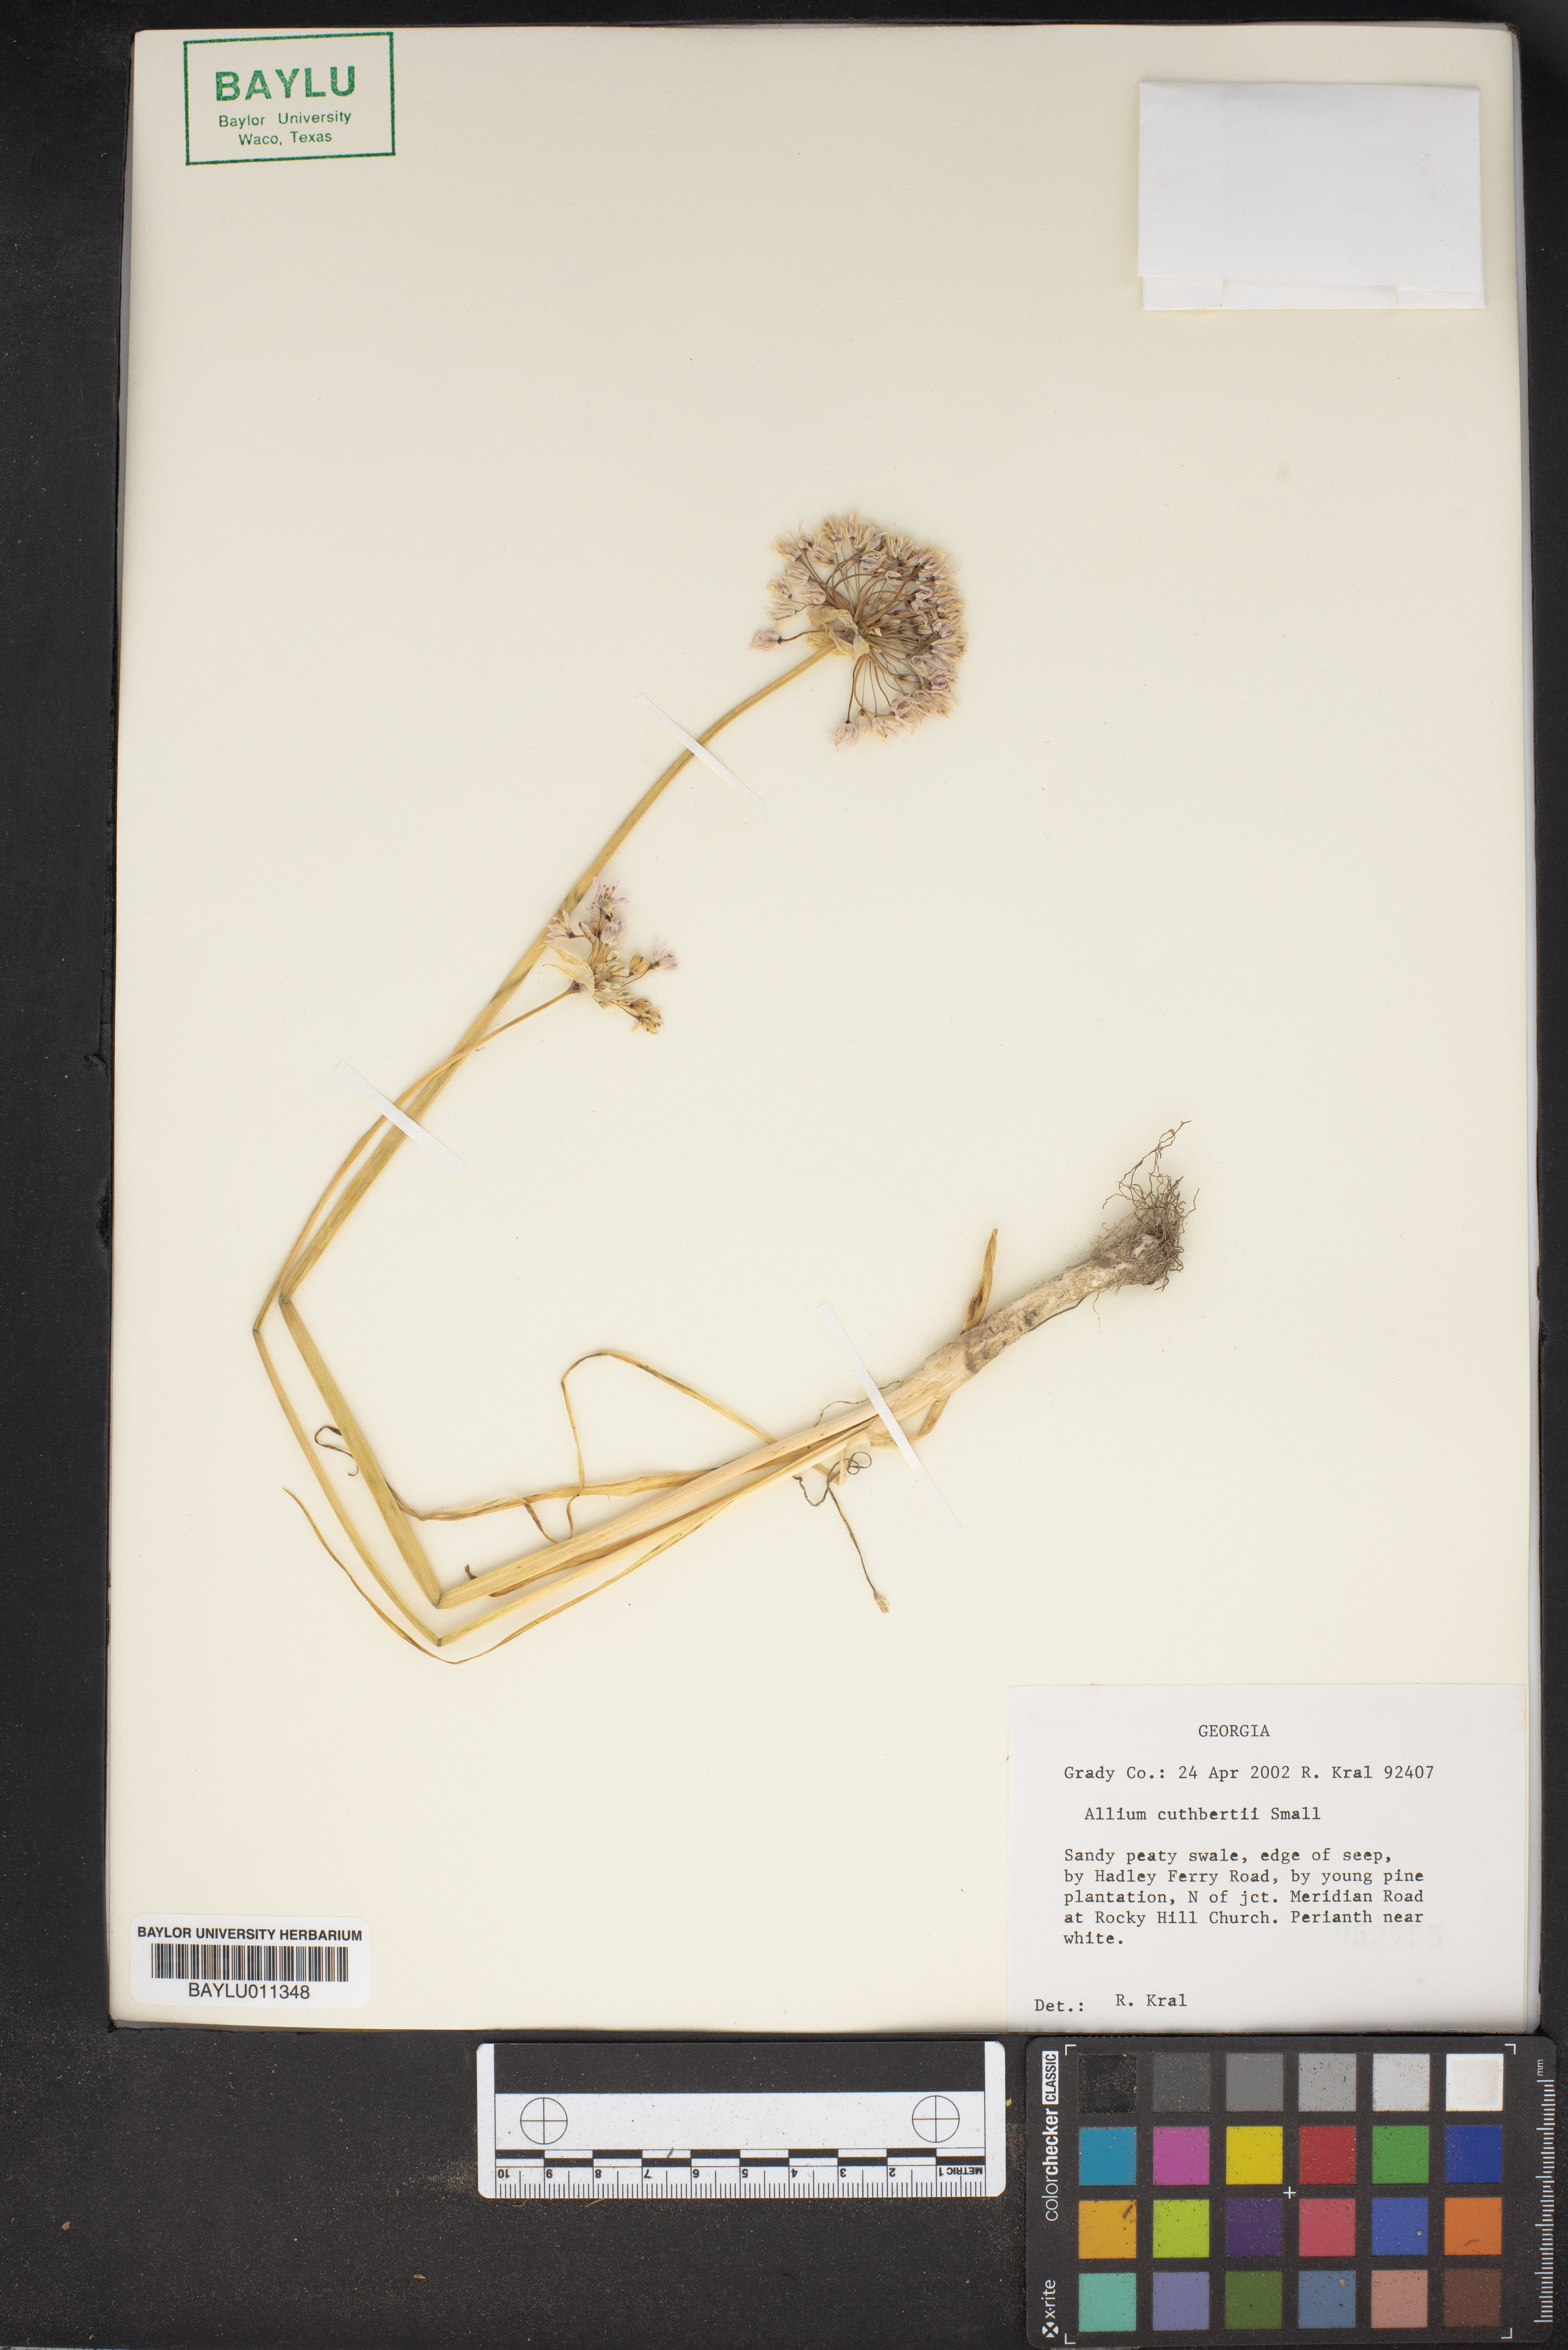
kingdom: Plantae
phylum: Tracheophyta
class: Liliopsida
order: Asparagales
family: Amaryllidaceae
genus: Allium
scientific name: Allium cuthbertii
